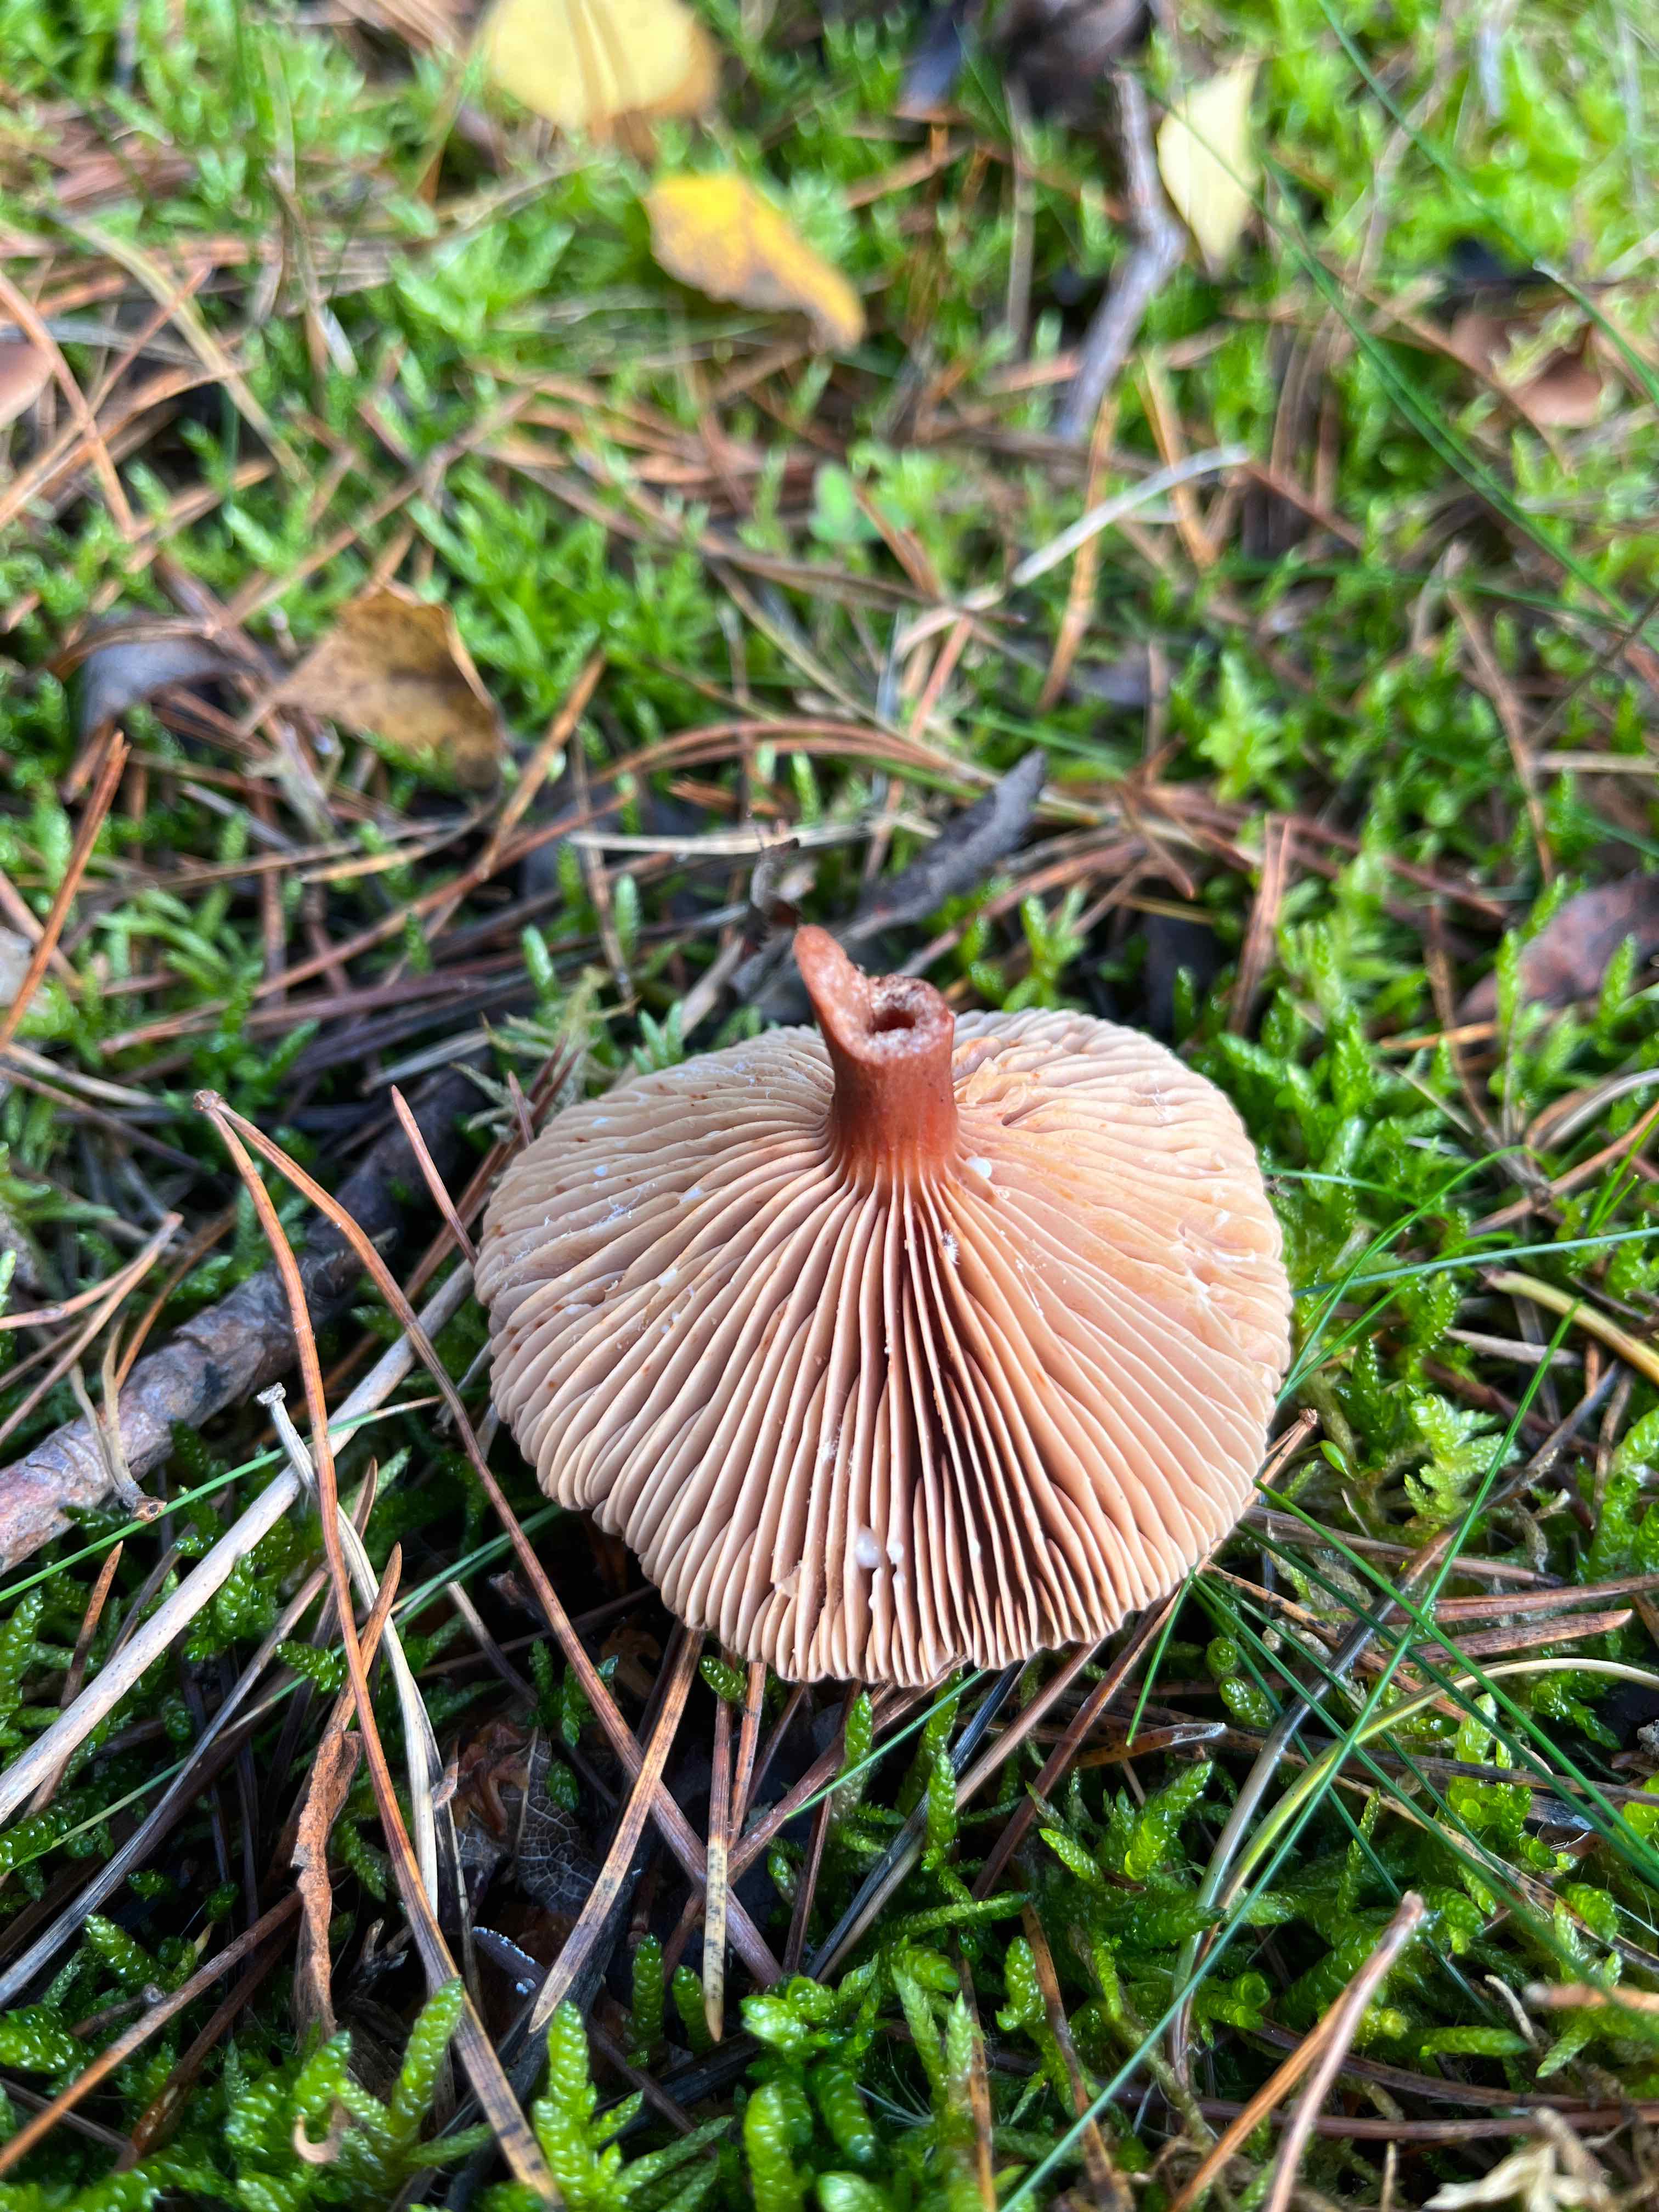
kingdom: Fungi
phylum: Basidiomycota
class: Agaricomycetes
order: Russulales
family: Russulaceae
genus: Lactarius
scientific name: Lactarius hepaticus
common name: leverbrun mælkehat
